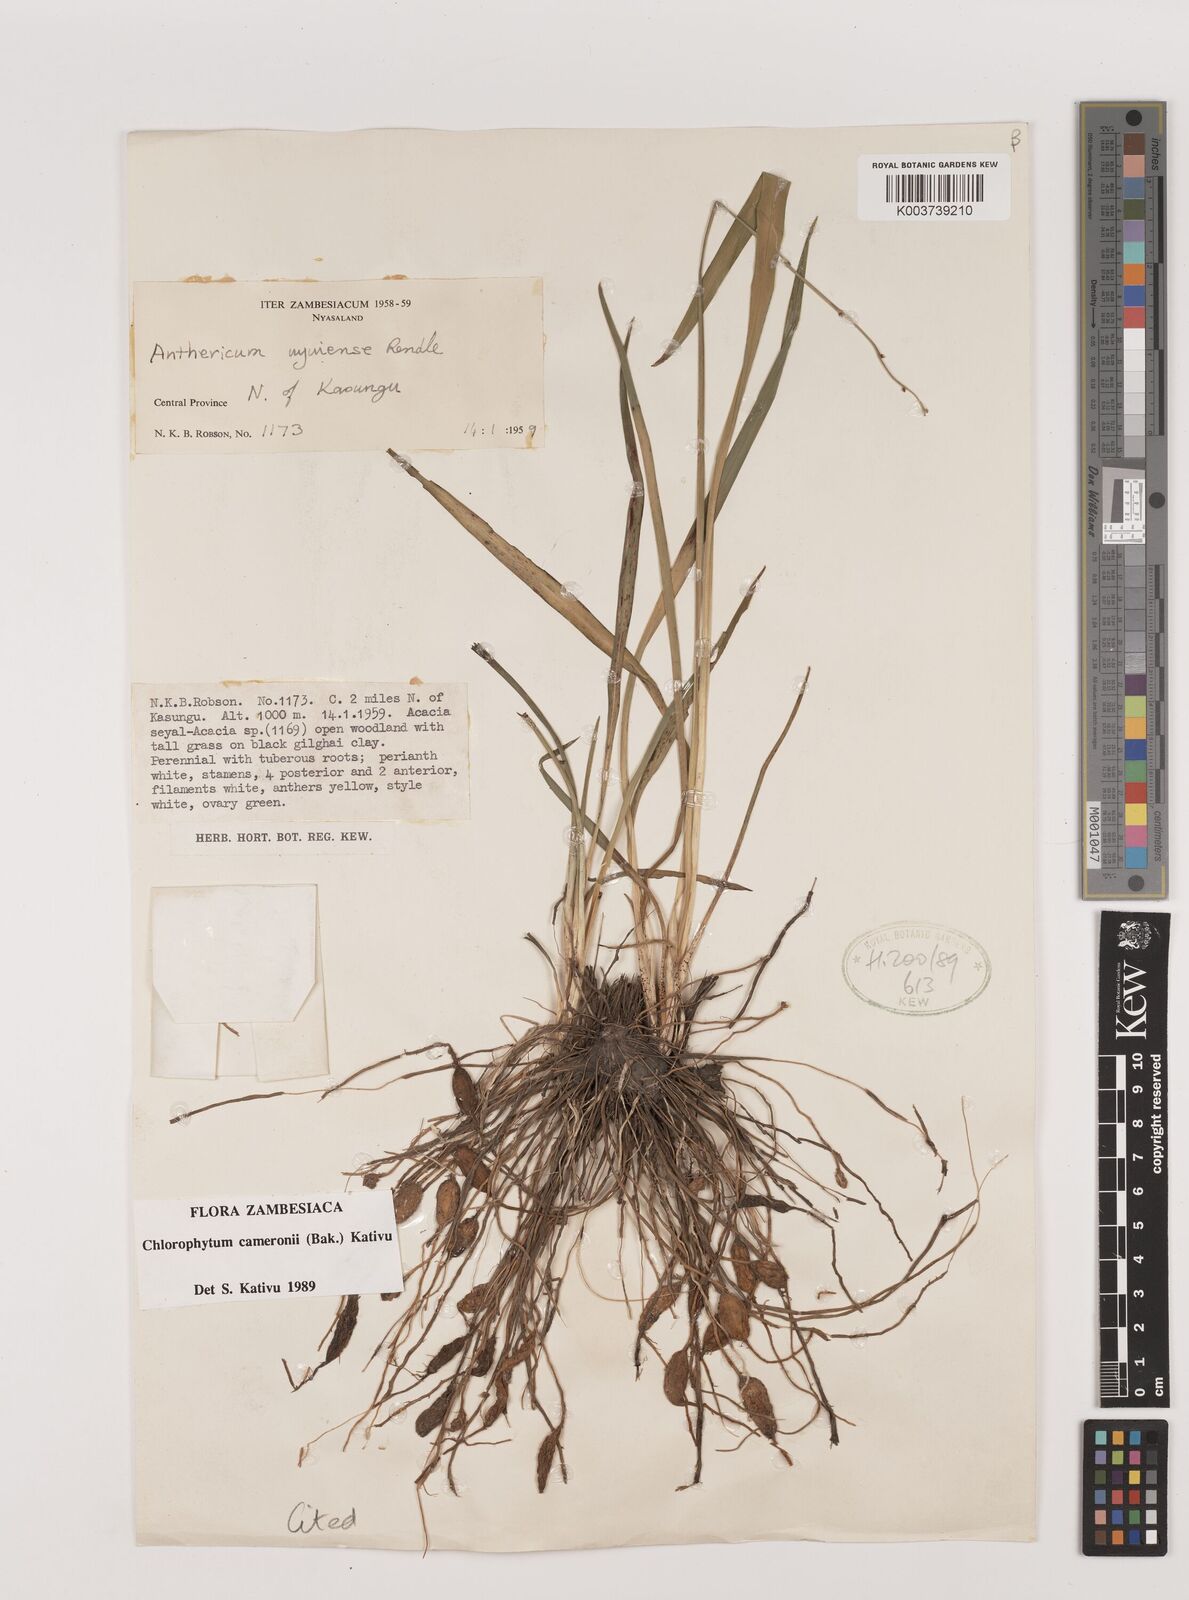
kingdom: Plantae
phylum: Tracheophyta
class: Liliopsida
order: Asparagales
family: Asparagaceae
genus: Chlorophytum
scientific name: Chlorophytum cameronii
